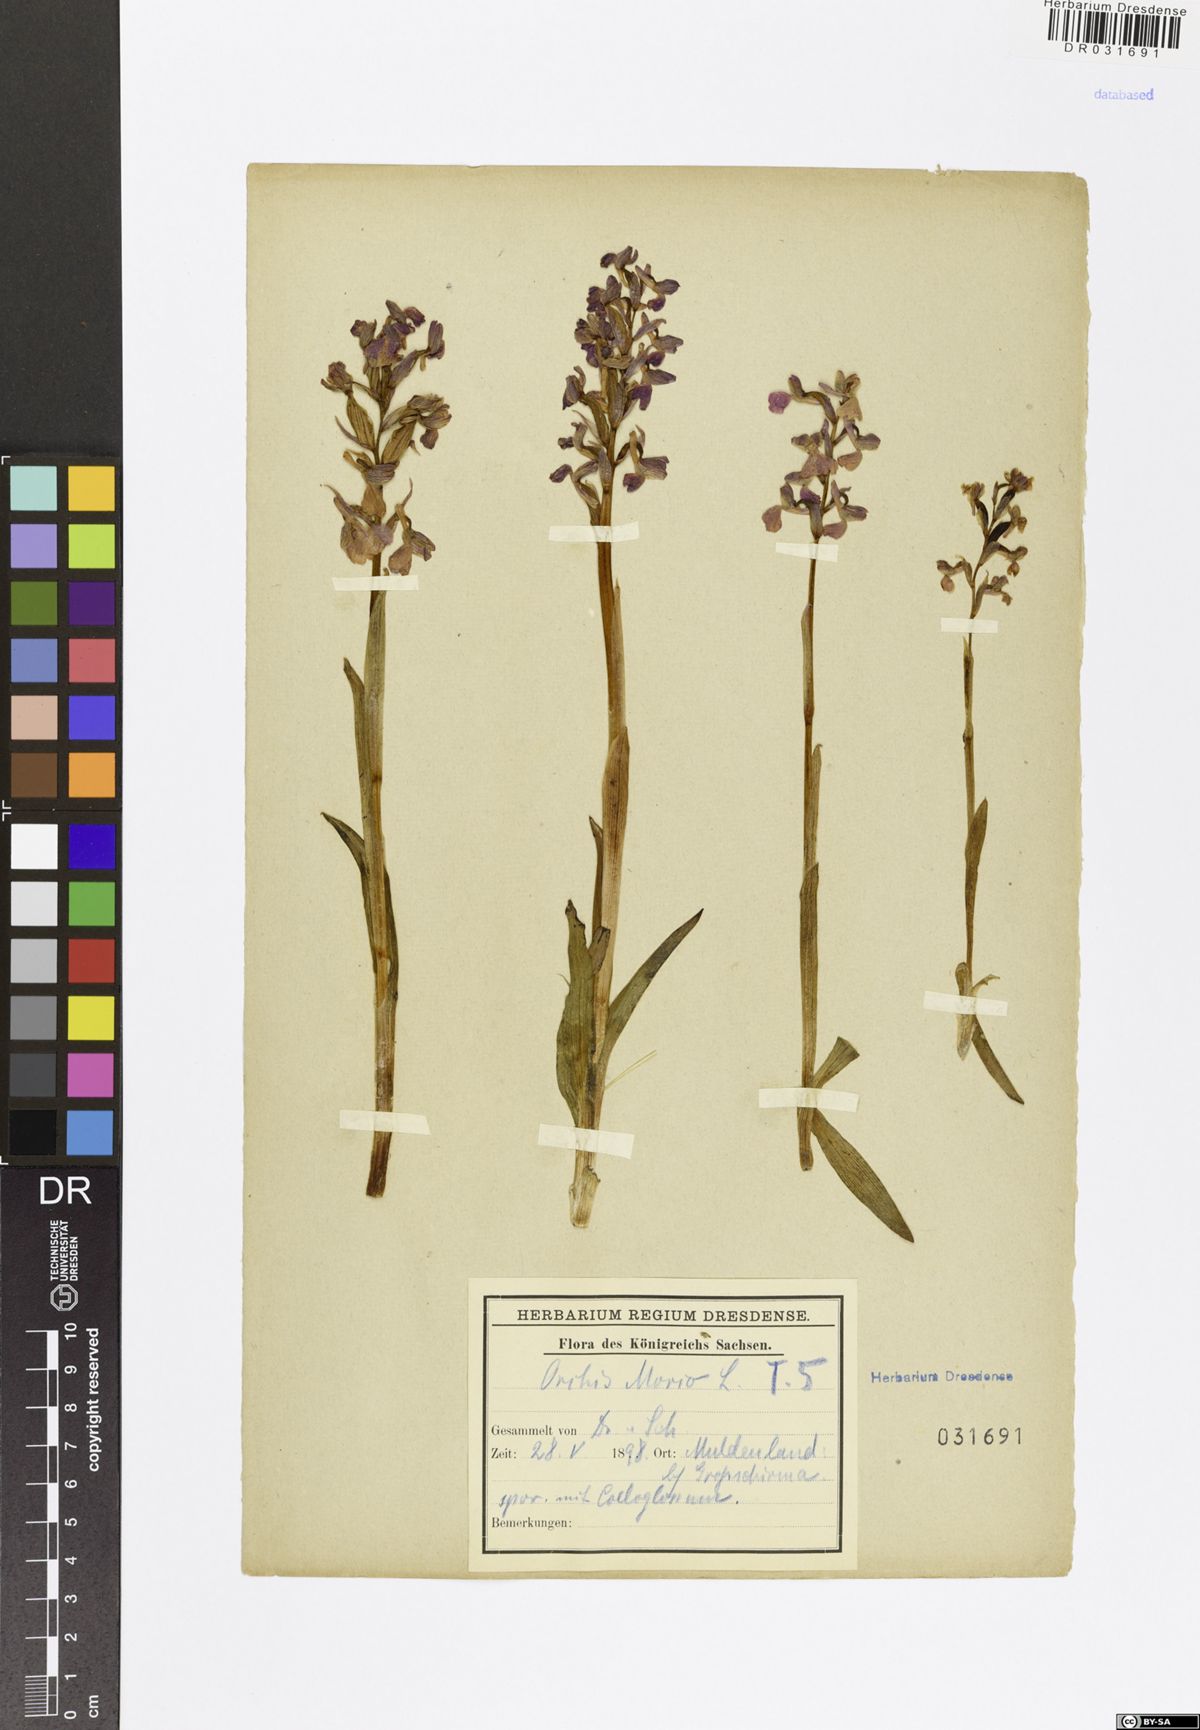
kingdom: Plantae
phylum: Tracheophyta
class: Liliopsida
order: Asparagales
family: Orchidaceae
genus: Anacamptis
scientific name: Anacamptis morio
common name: Green-winged orchid
